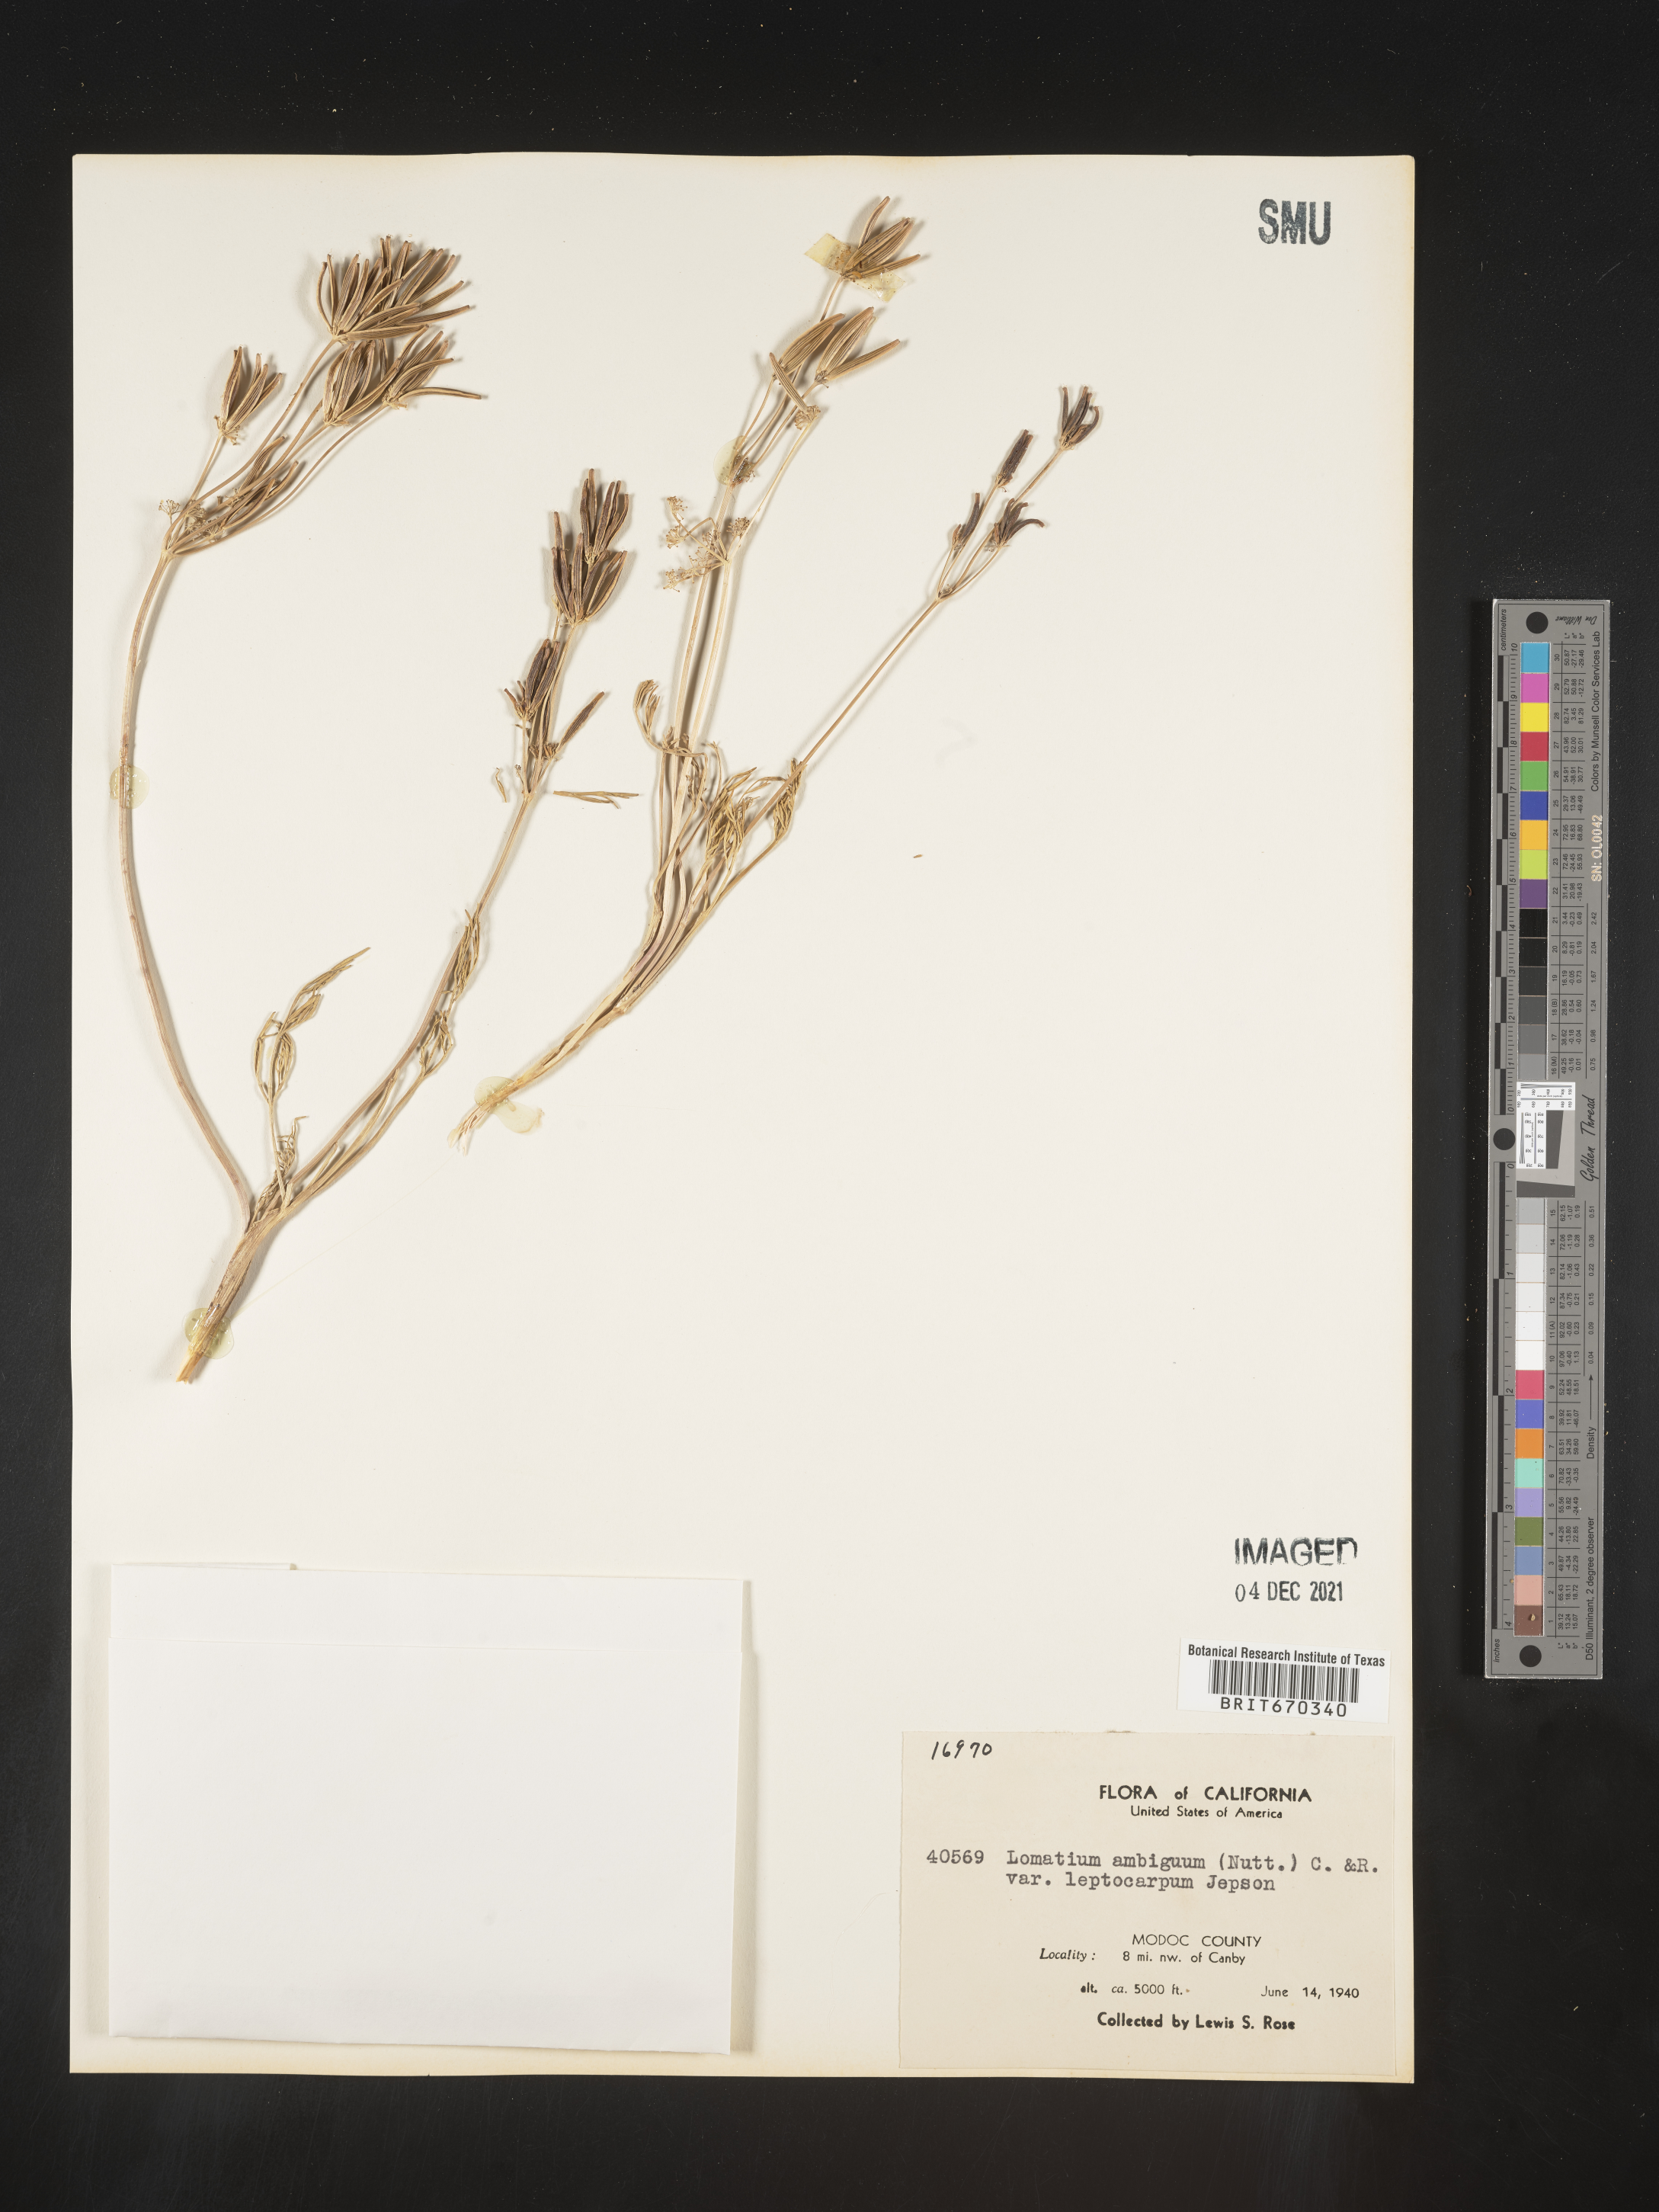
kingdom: Plantae
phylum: Tracheophyta
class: Magnoliopsida
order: Apiales
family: Apiaceae
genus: Lomatium
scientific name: Lomatium ambiguum
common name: Lacy lomatium
